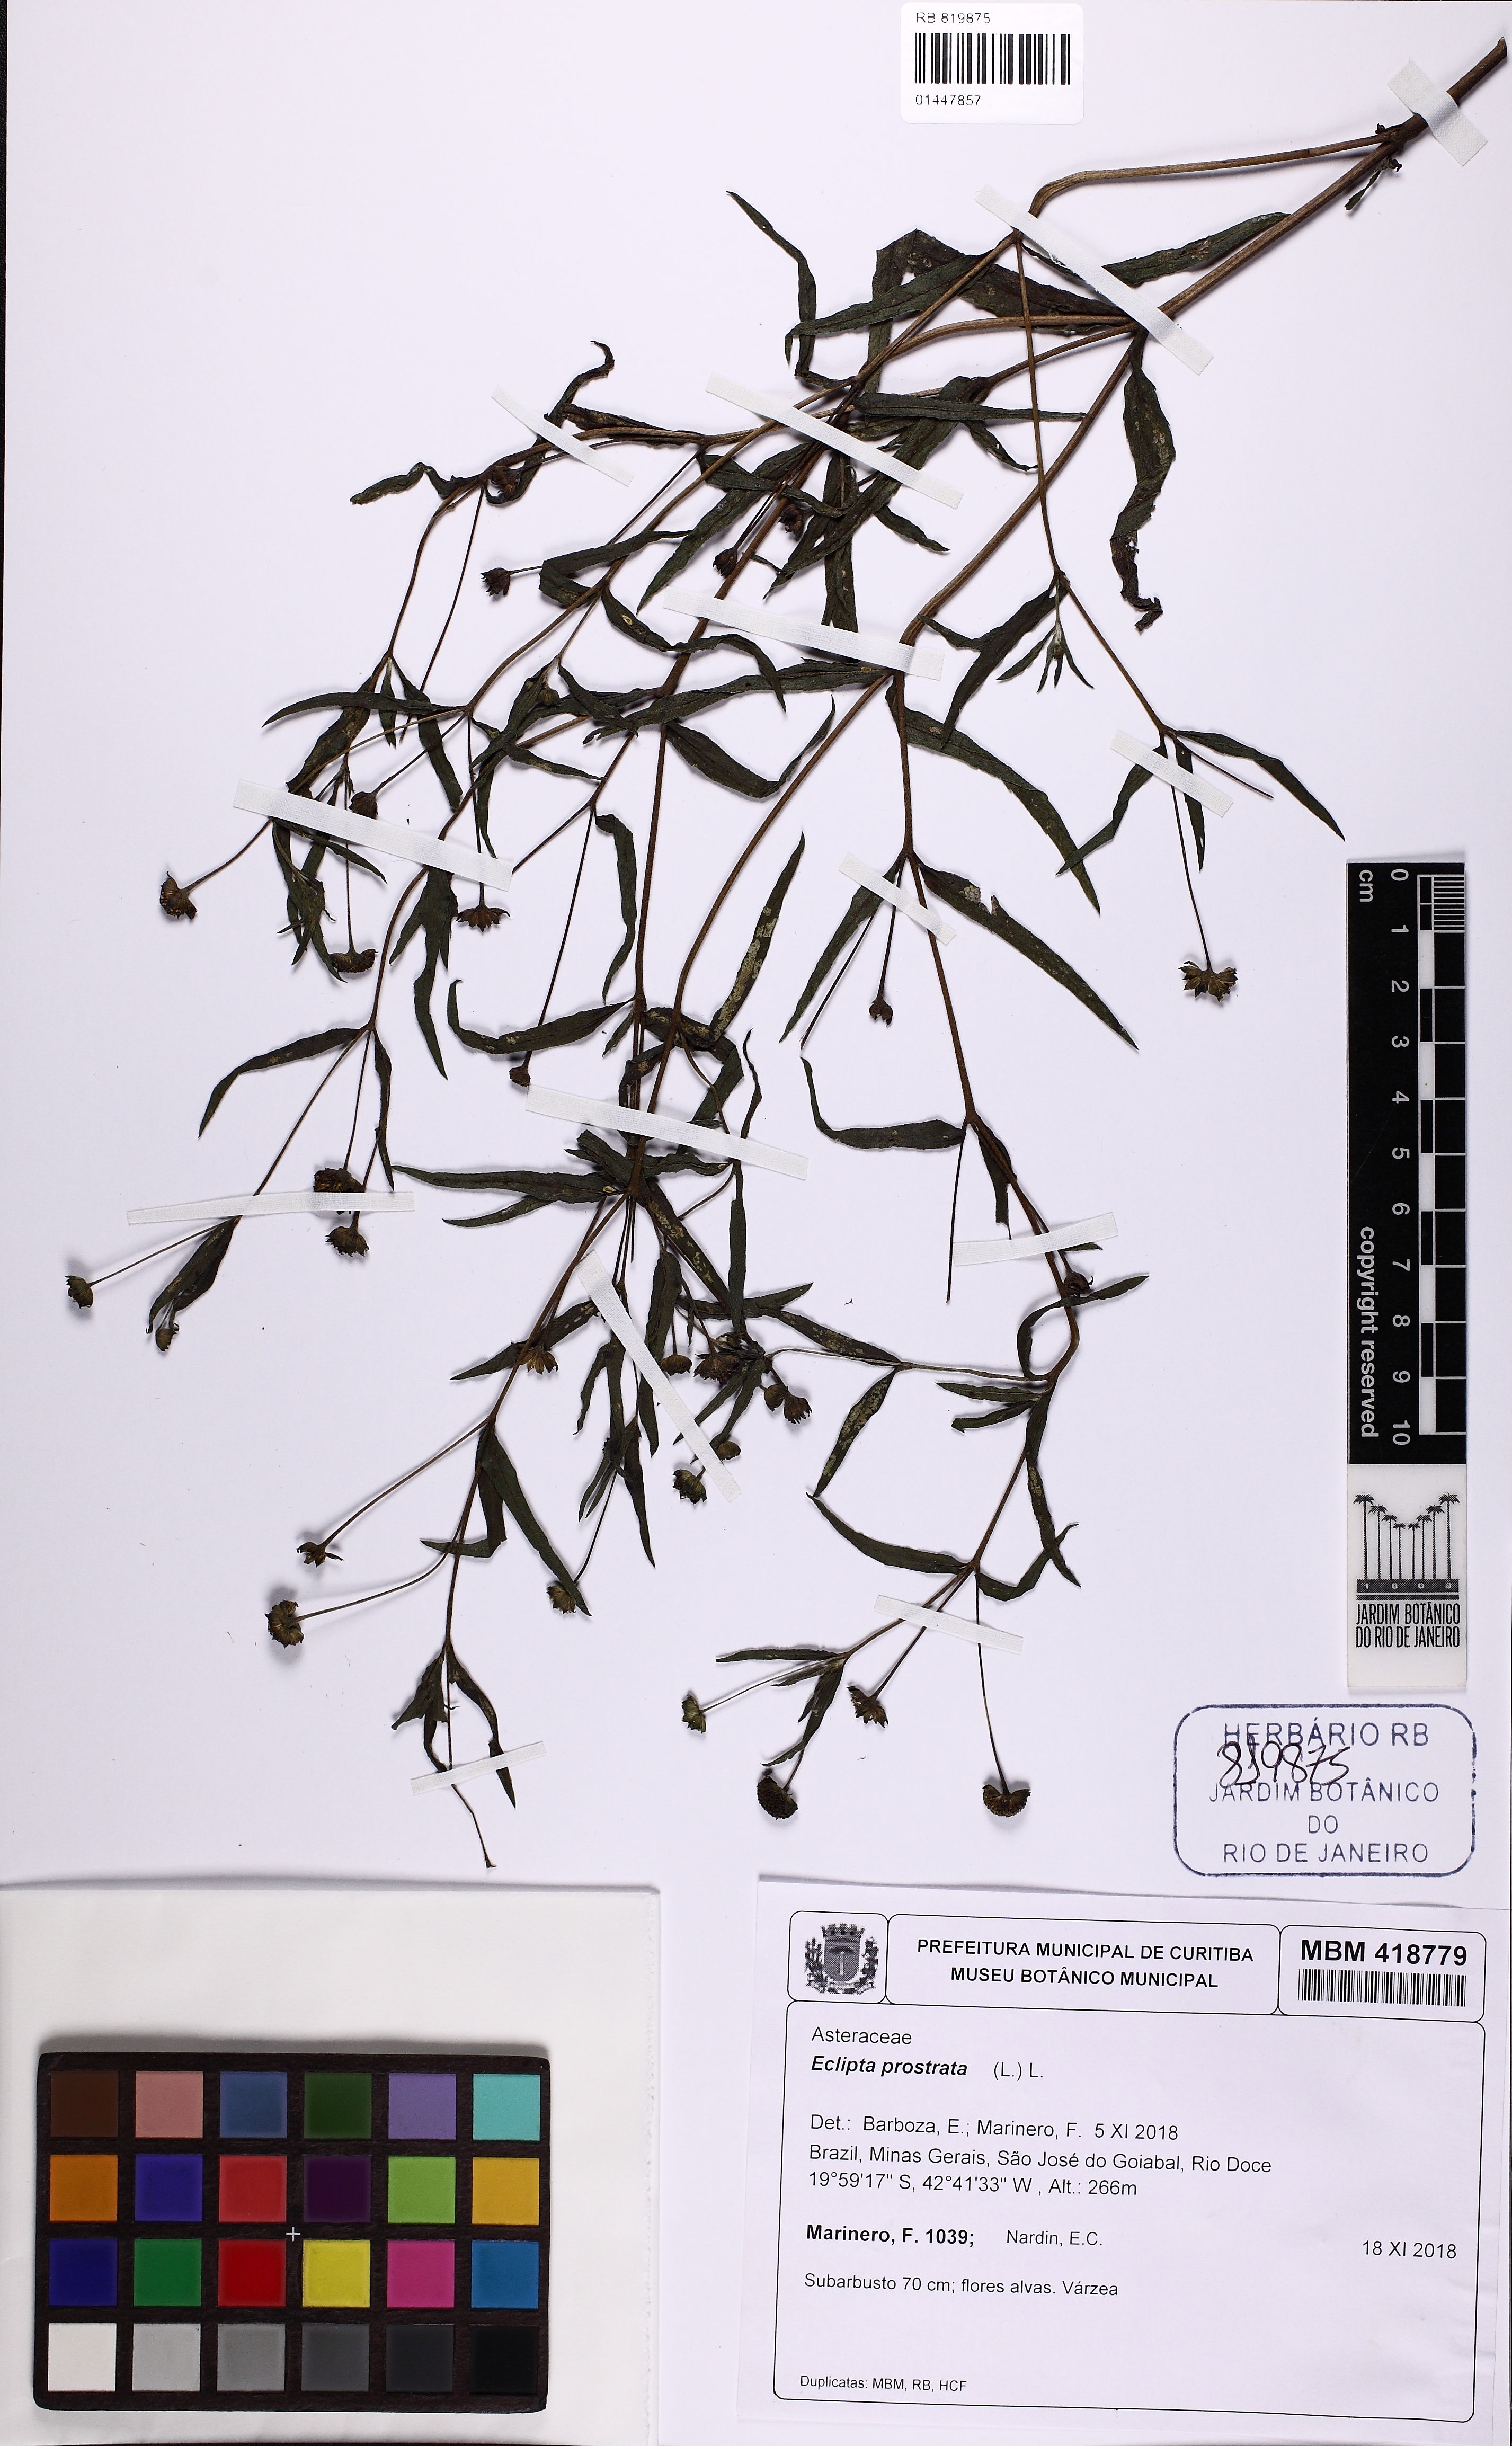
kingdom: Plantae
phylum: Tracheophyta
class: Magnoliopsida
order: Asterales
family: Asteraceae
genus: Eclipta
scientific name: Eclipta prostrata
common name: False daisy
